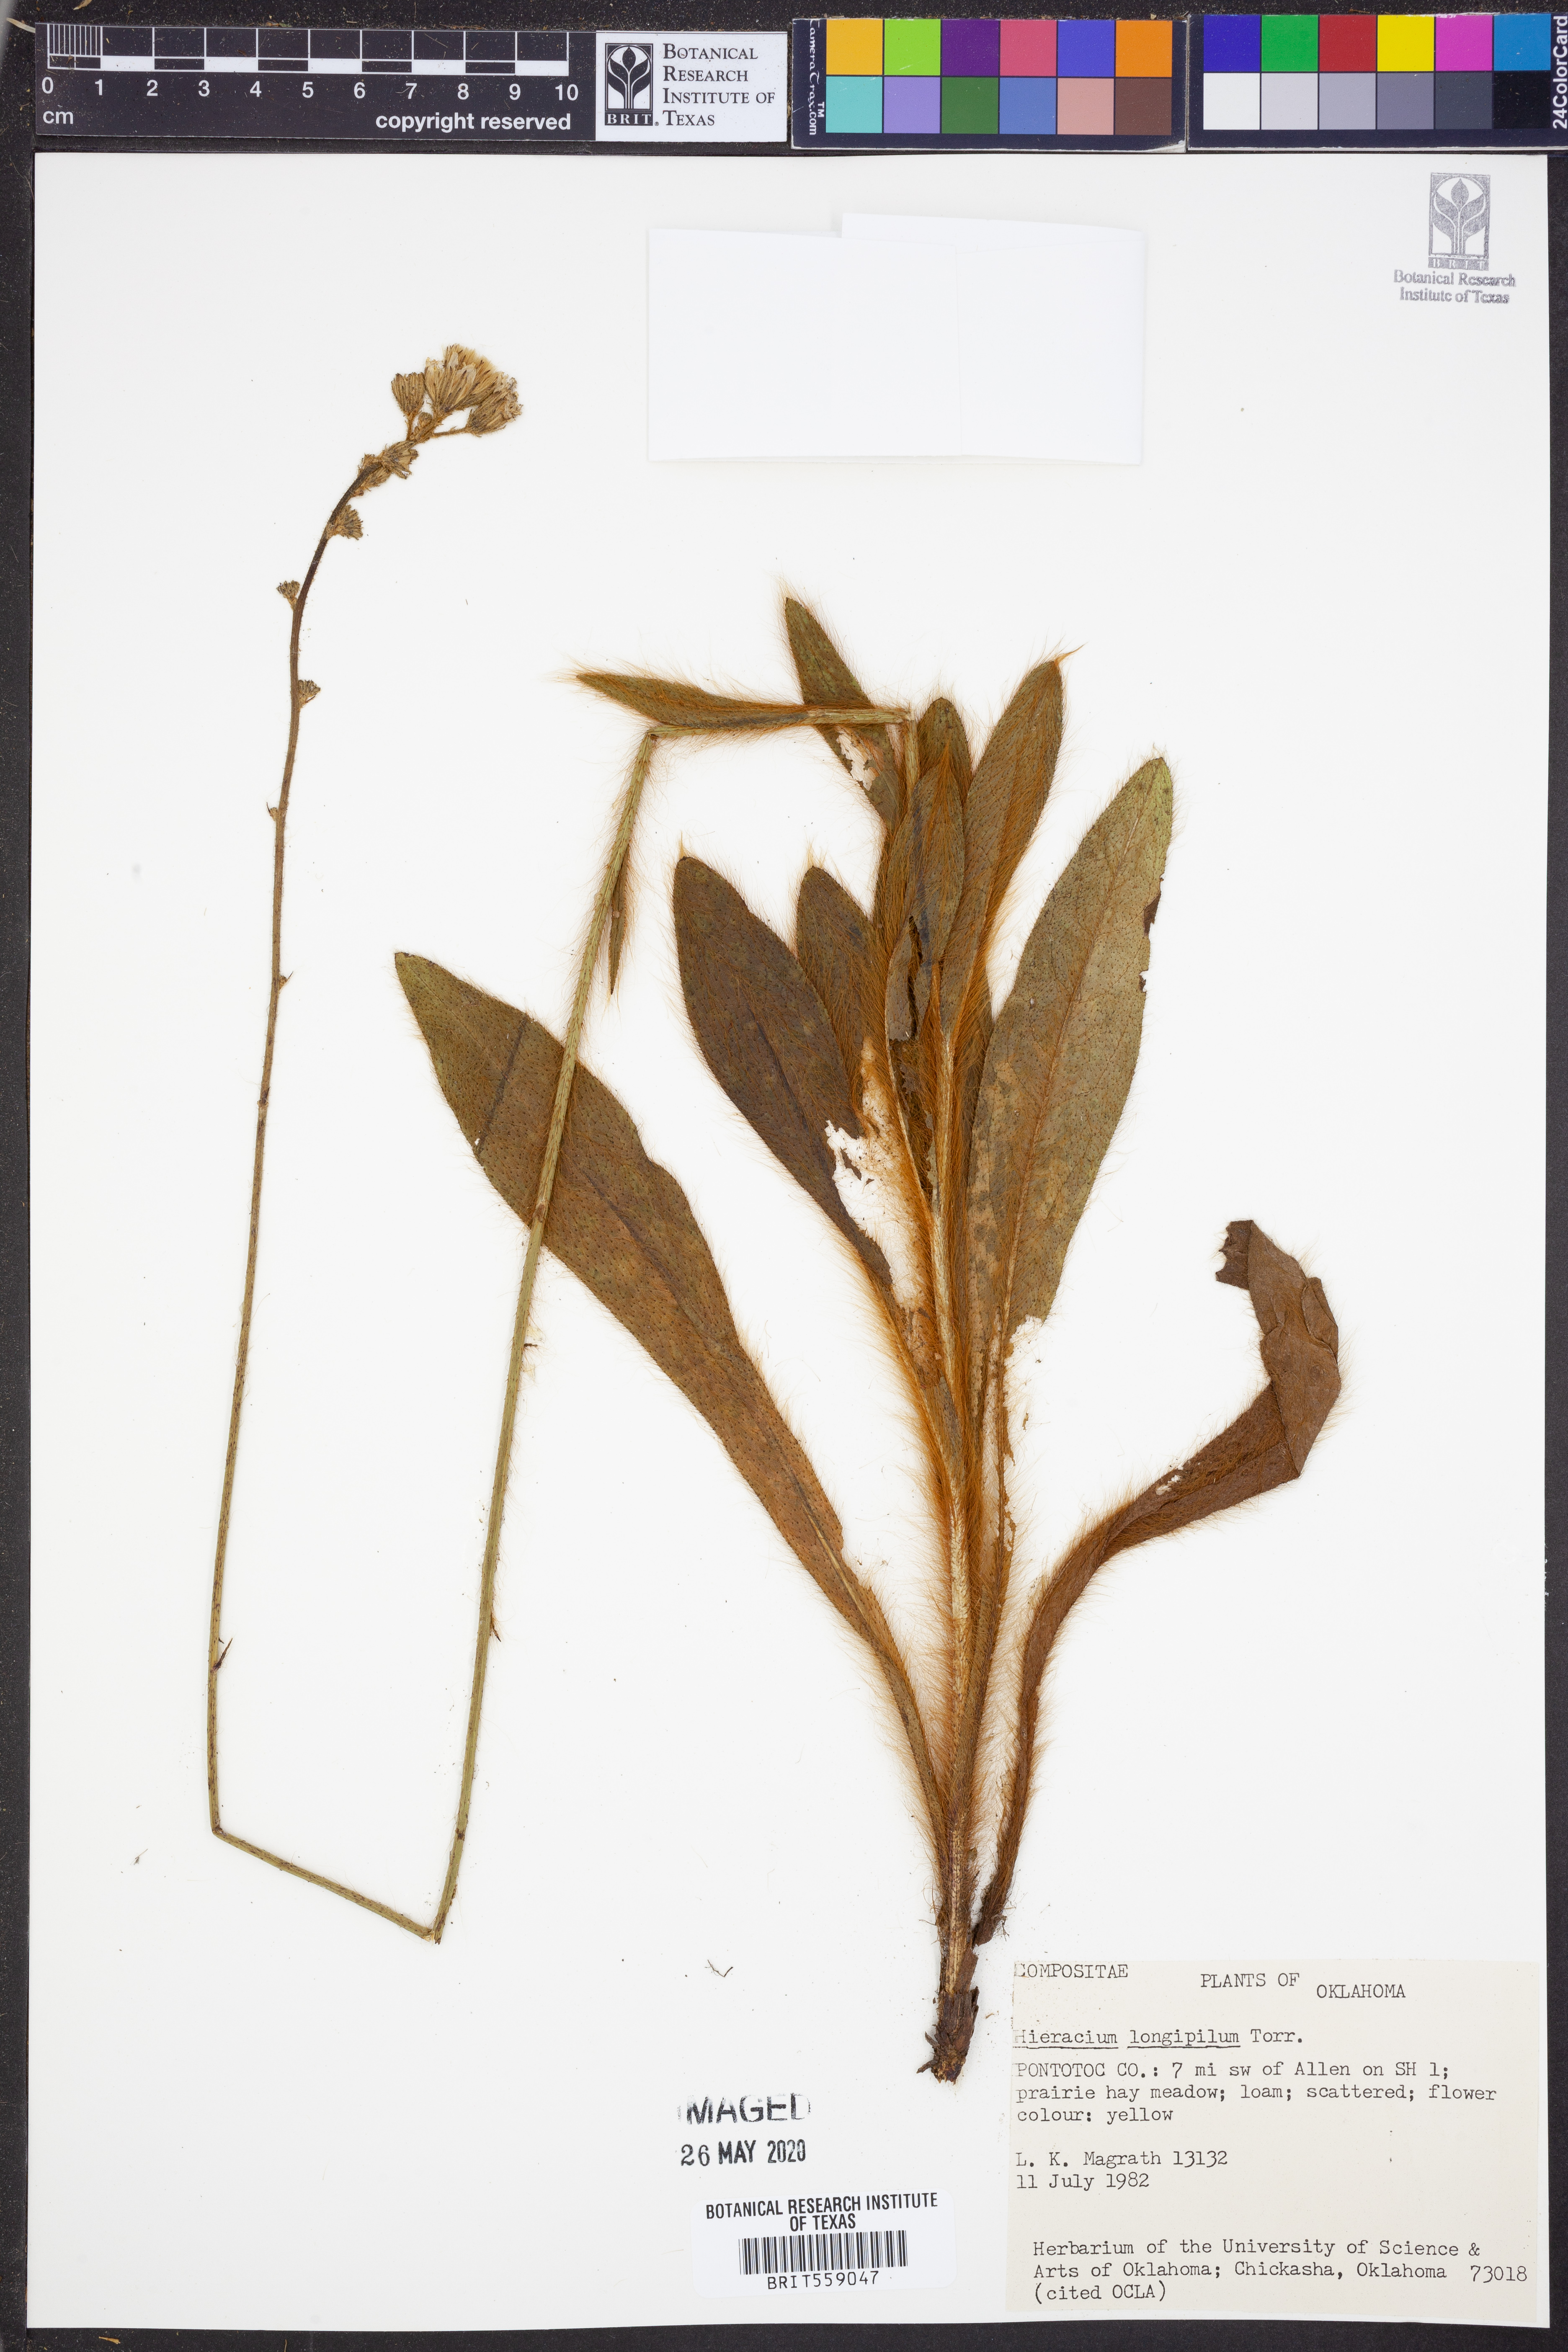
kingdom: Plantae
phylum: Tracheophyta
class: Magnoliopsida
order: Asterales
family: Asteraceae
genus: Hieracium
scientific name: Hieracium longipilum
